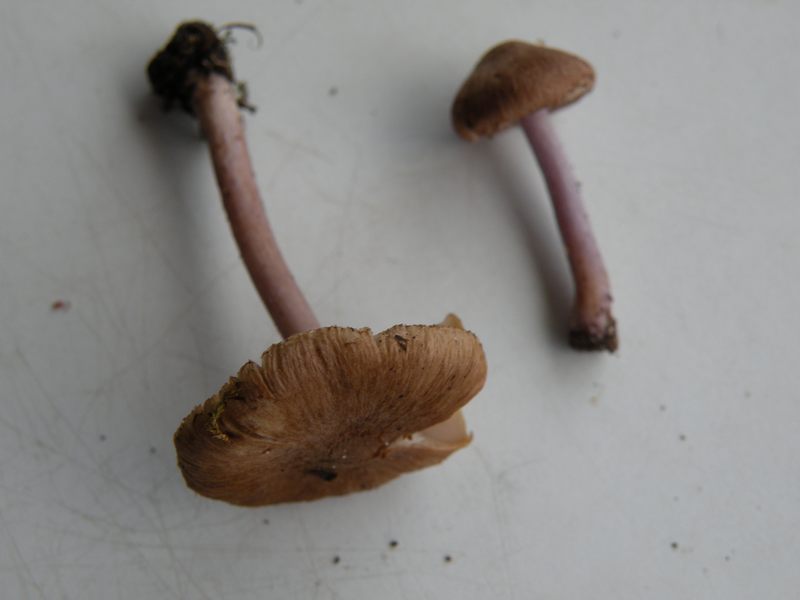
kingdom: Fungi
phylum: Basidiomycota
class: Agaricomycetes
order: Agaricales
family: Inocybaceae
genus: Inocybe
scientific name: Inocybe pusio
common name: violetfodet trævlhat
